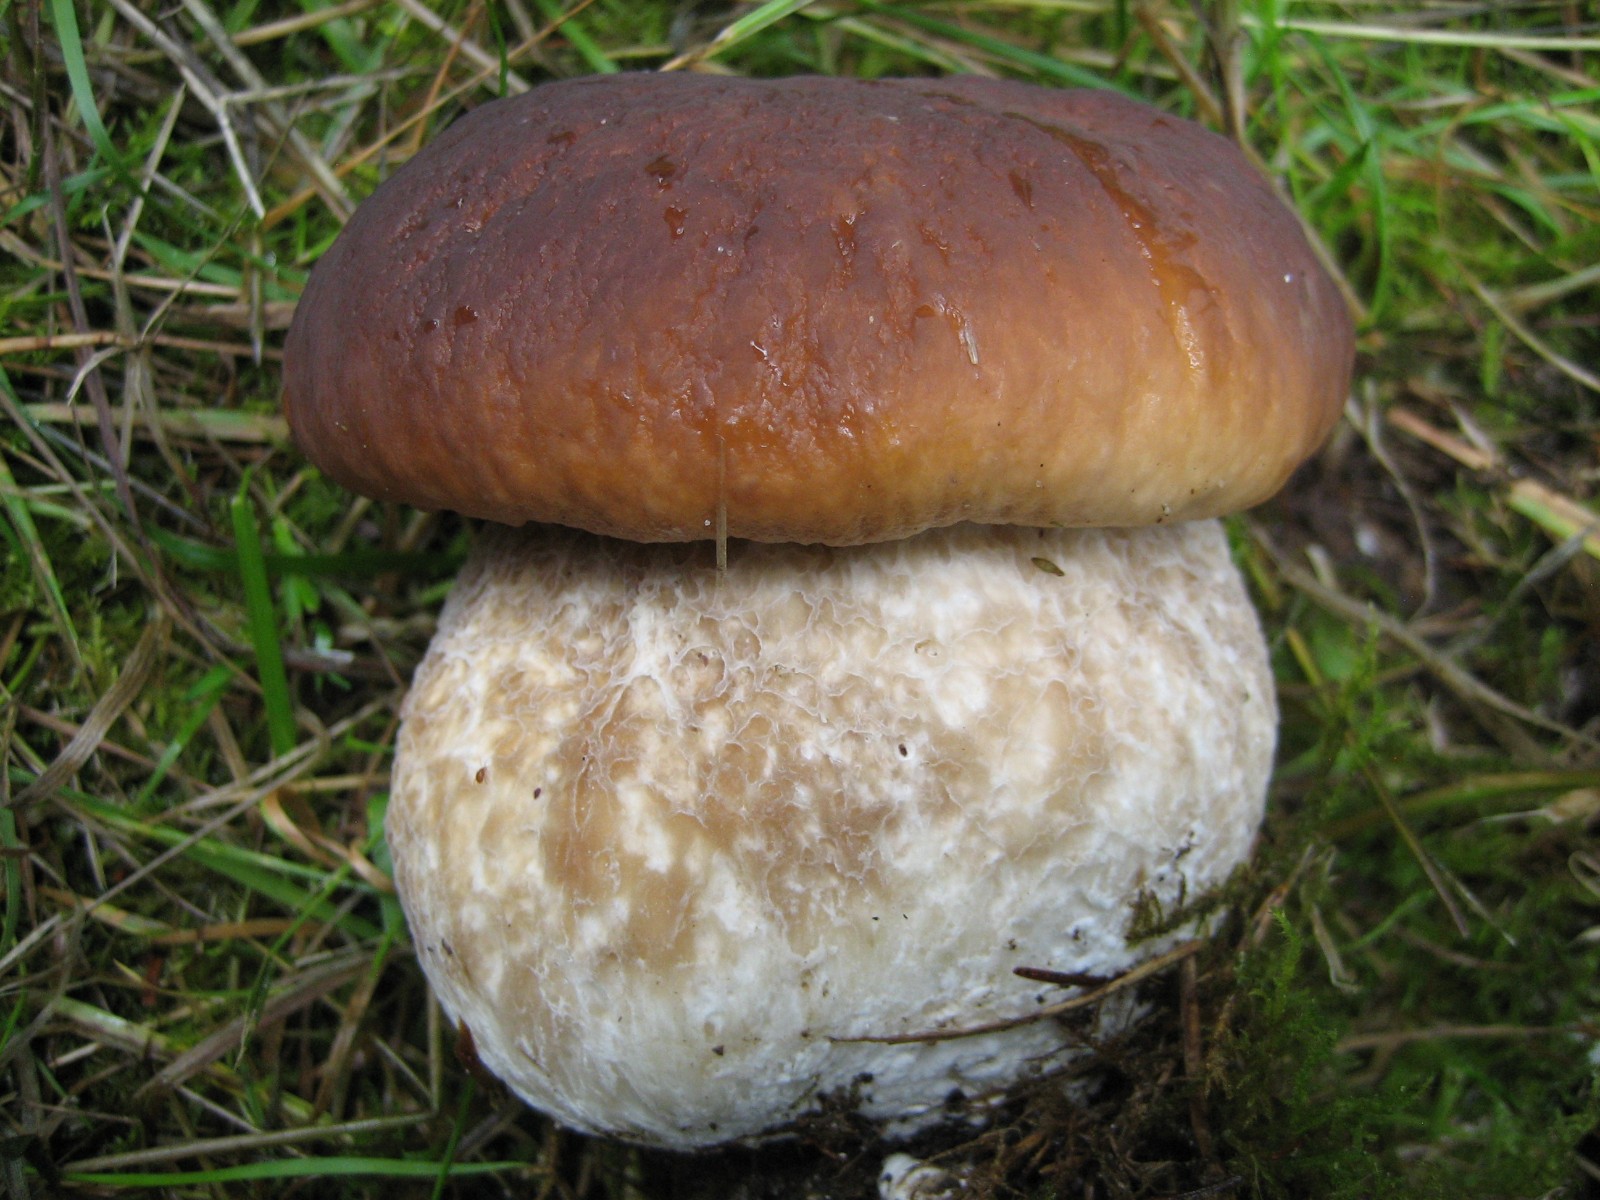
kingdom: Fungi
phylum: Basidiomycota
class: Agaricomycetes
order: Boletales
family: Boletaceae
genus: Boletus
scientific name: Boletus edulis
